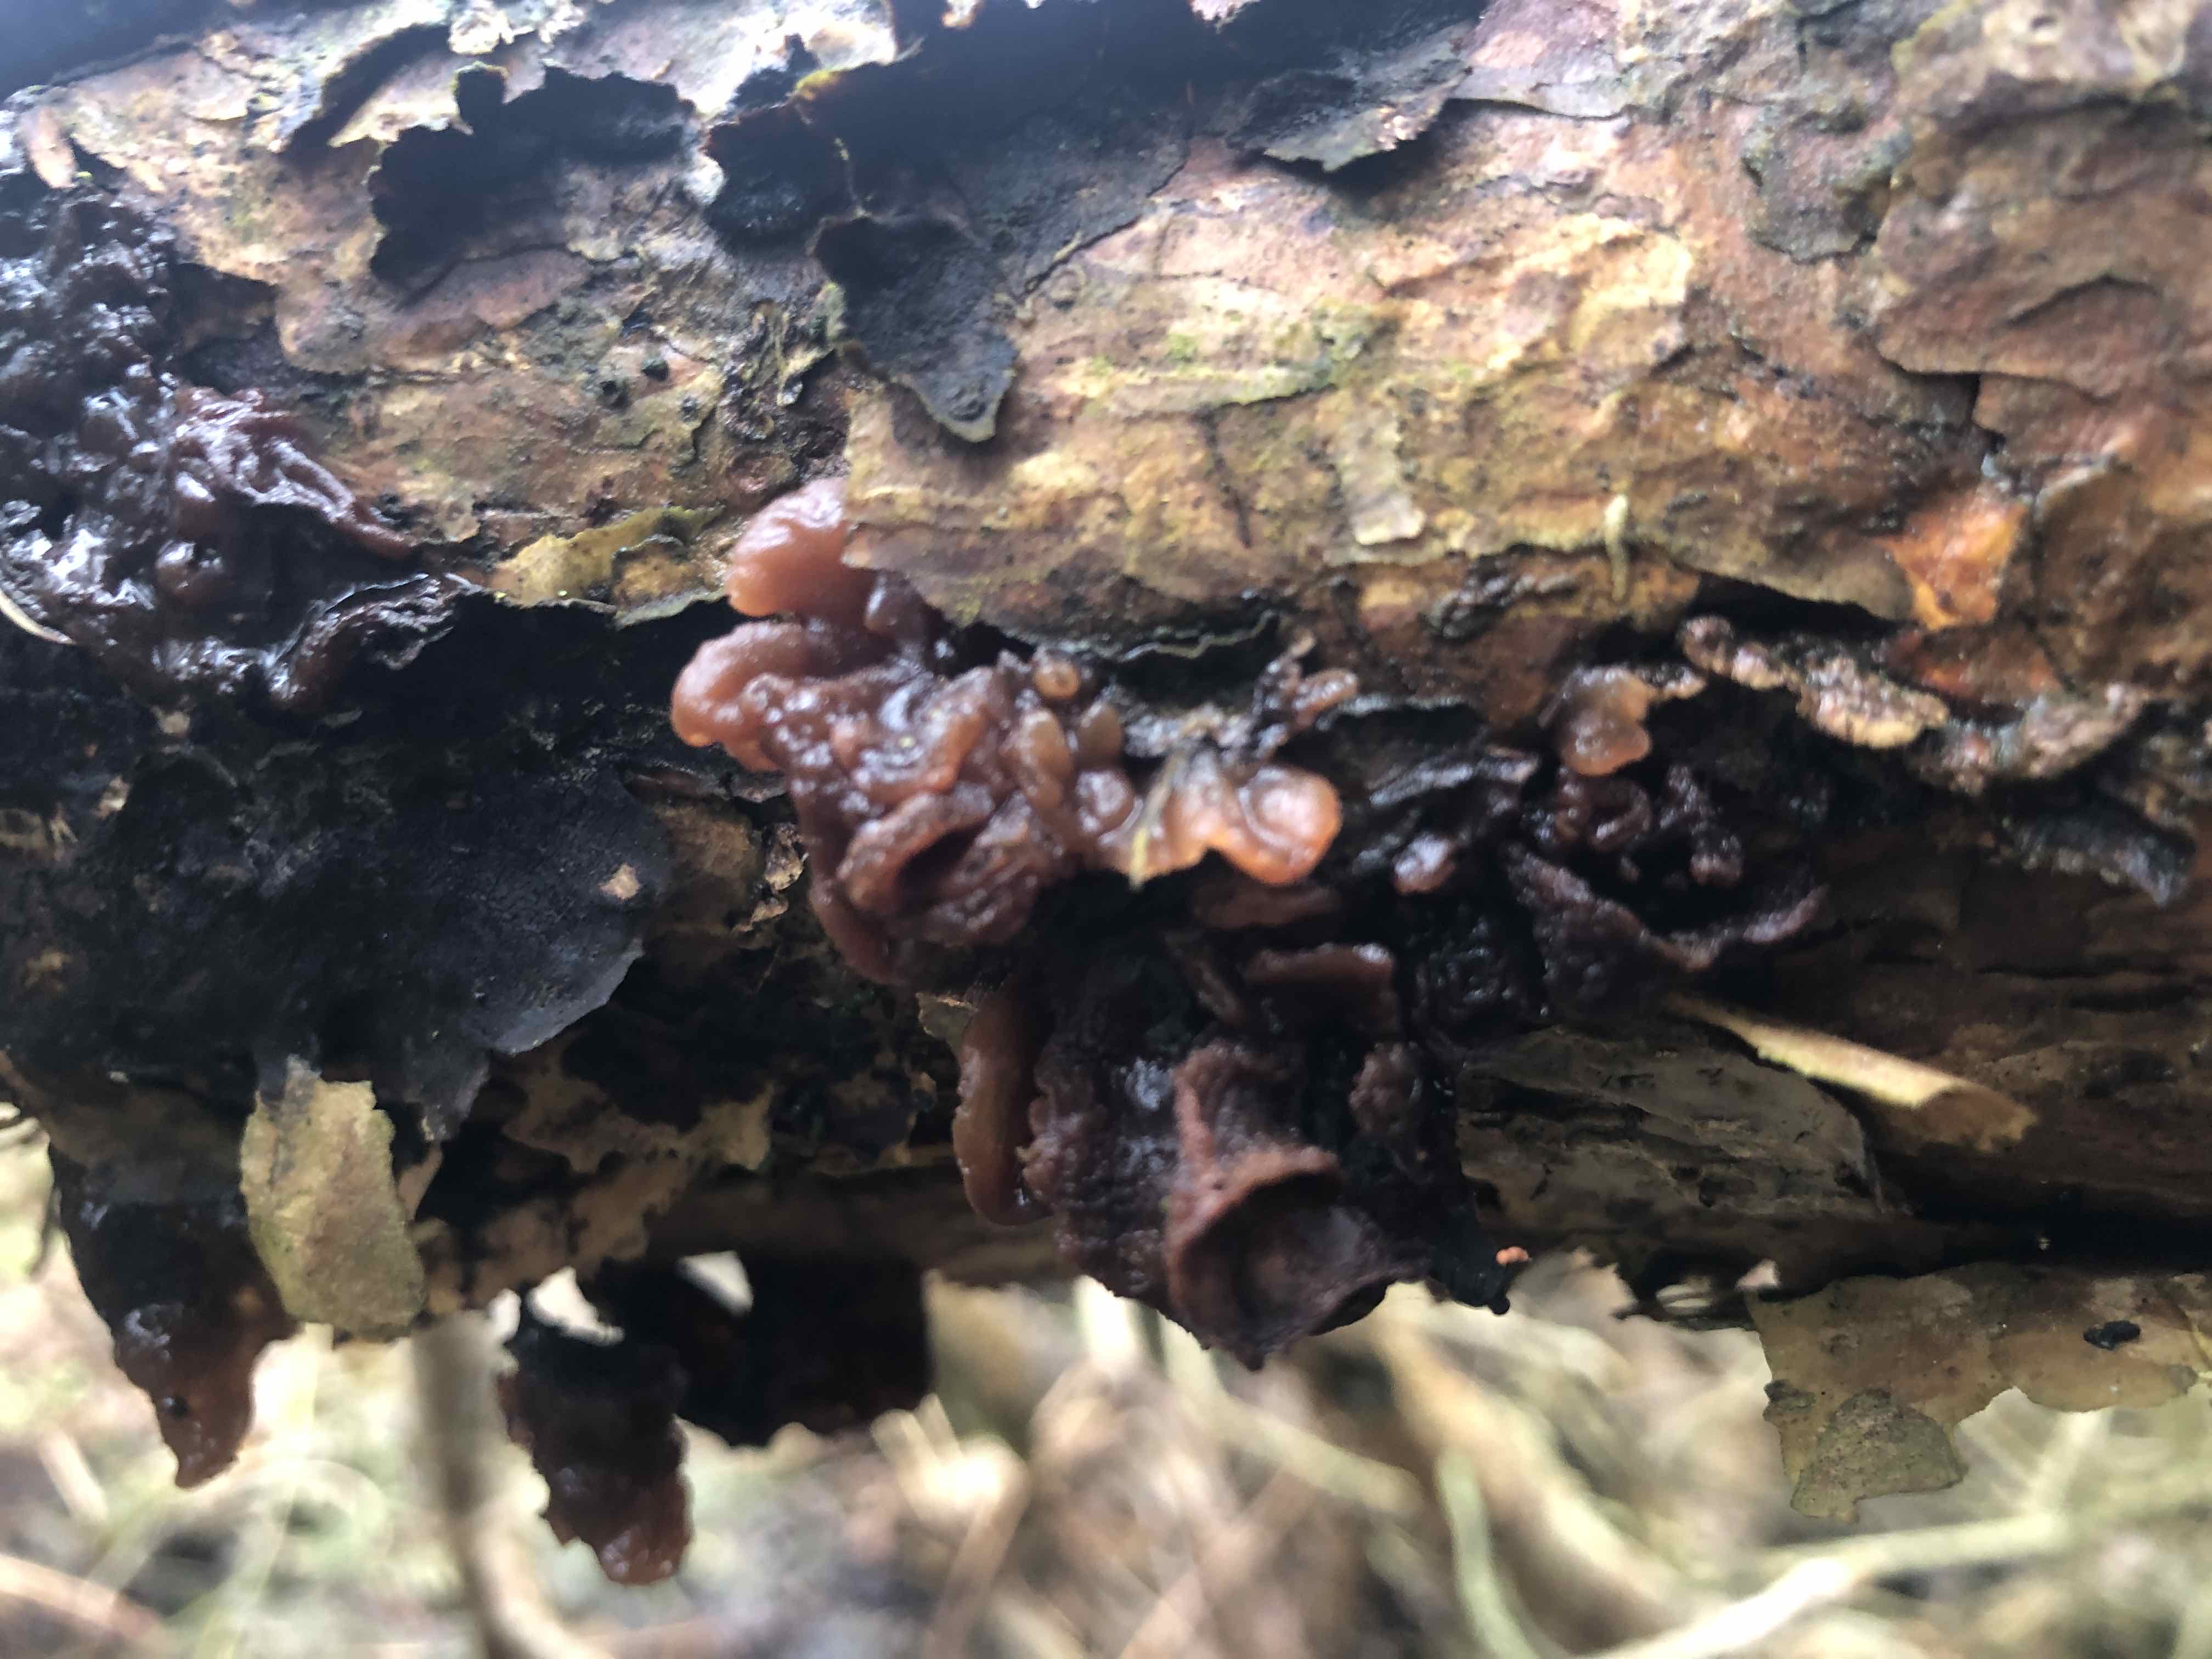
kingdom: Fungi
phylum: Basidiomycota
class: Tremellomycetes
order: Tremellales
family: Tremellaceae
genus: Phaeotremella
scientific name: Phaeotremella foliacea
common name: brun bævresvamp
